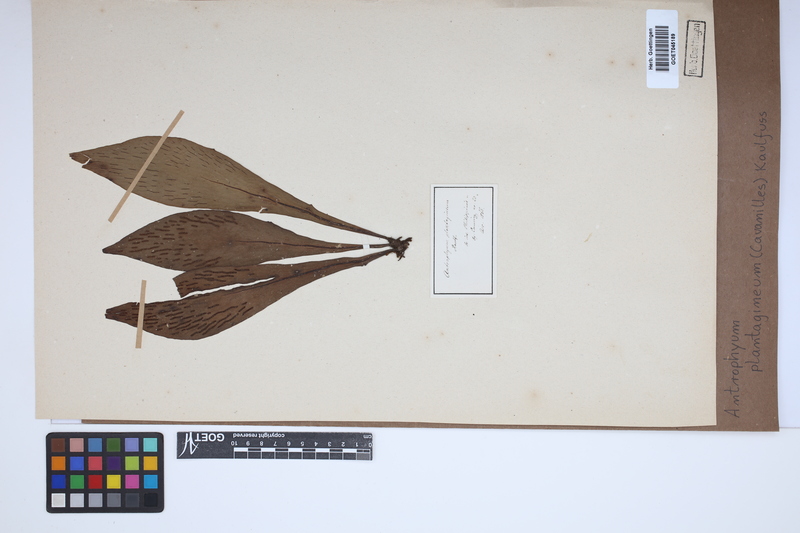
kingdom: Plantae
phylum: Tracheophyta
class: Polypodiopsida
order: Polypodiales
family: Pteridaceae
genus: Antrophyum
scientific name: Antrophyum plantagineum
